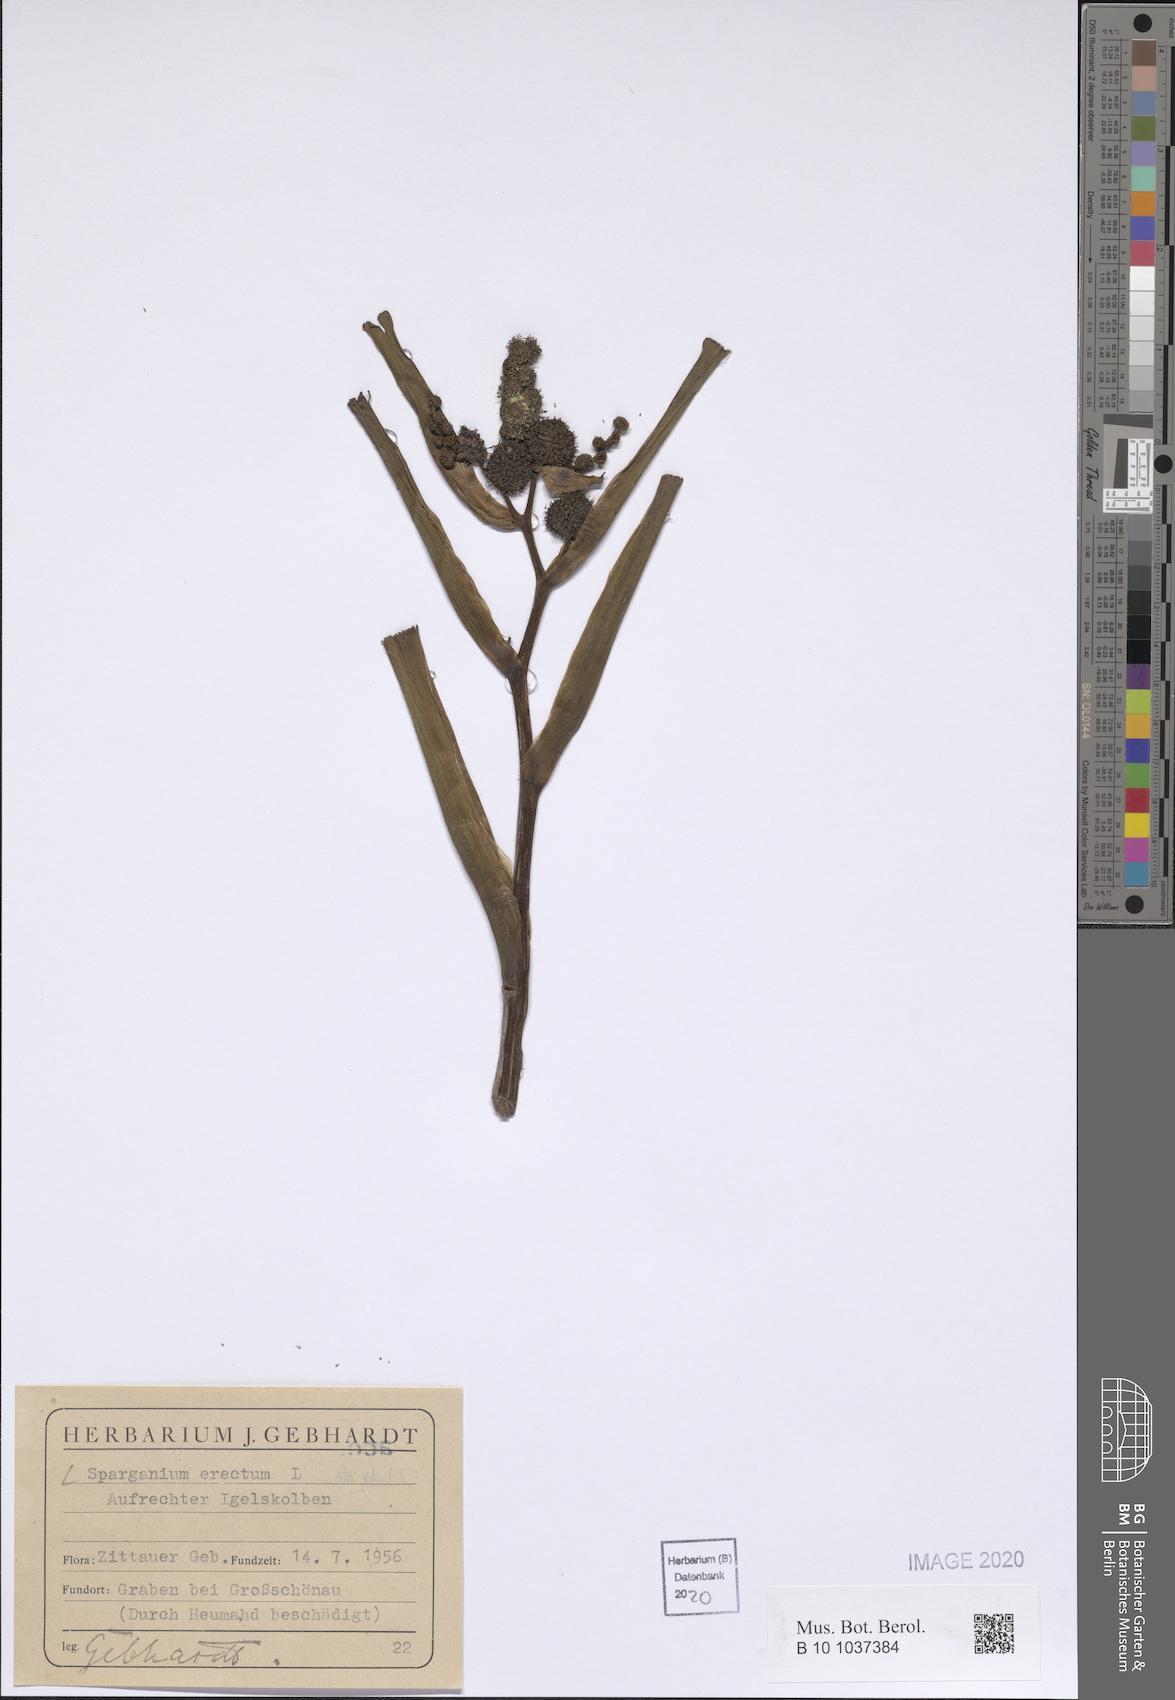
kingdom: Plantae
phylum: Tracheophyta
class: Liliopsida
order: Poales
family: Typhaceae
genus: Sparganium
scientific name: Sparganium erectum
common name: Branched bur-reed
